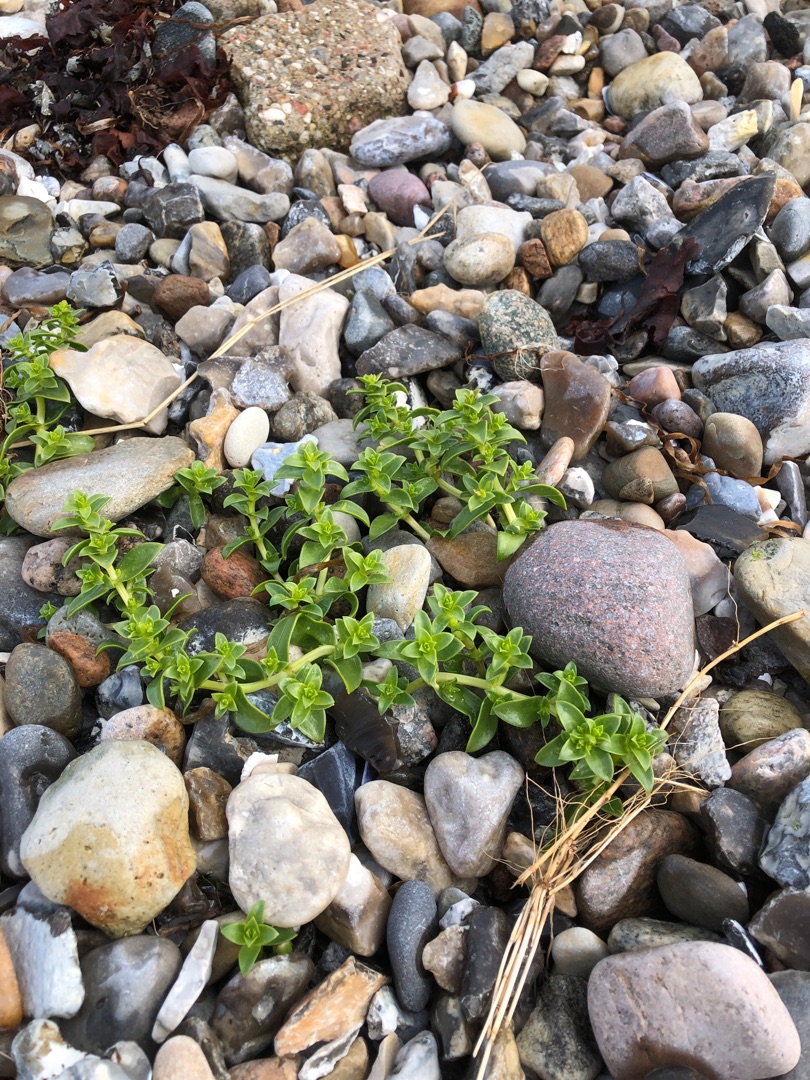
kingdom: Plantae
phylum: Tracheophyta
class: Magnoliopsida
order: Caryophyllales
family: Caryophyllaceae
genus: Honckenya
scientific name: Honckenya peploides
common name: Strandarve
